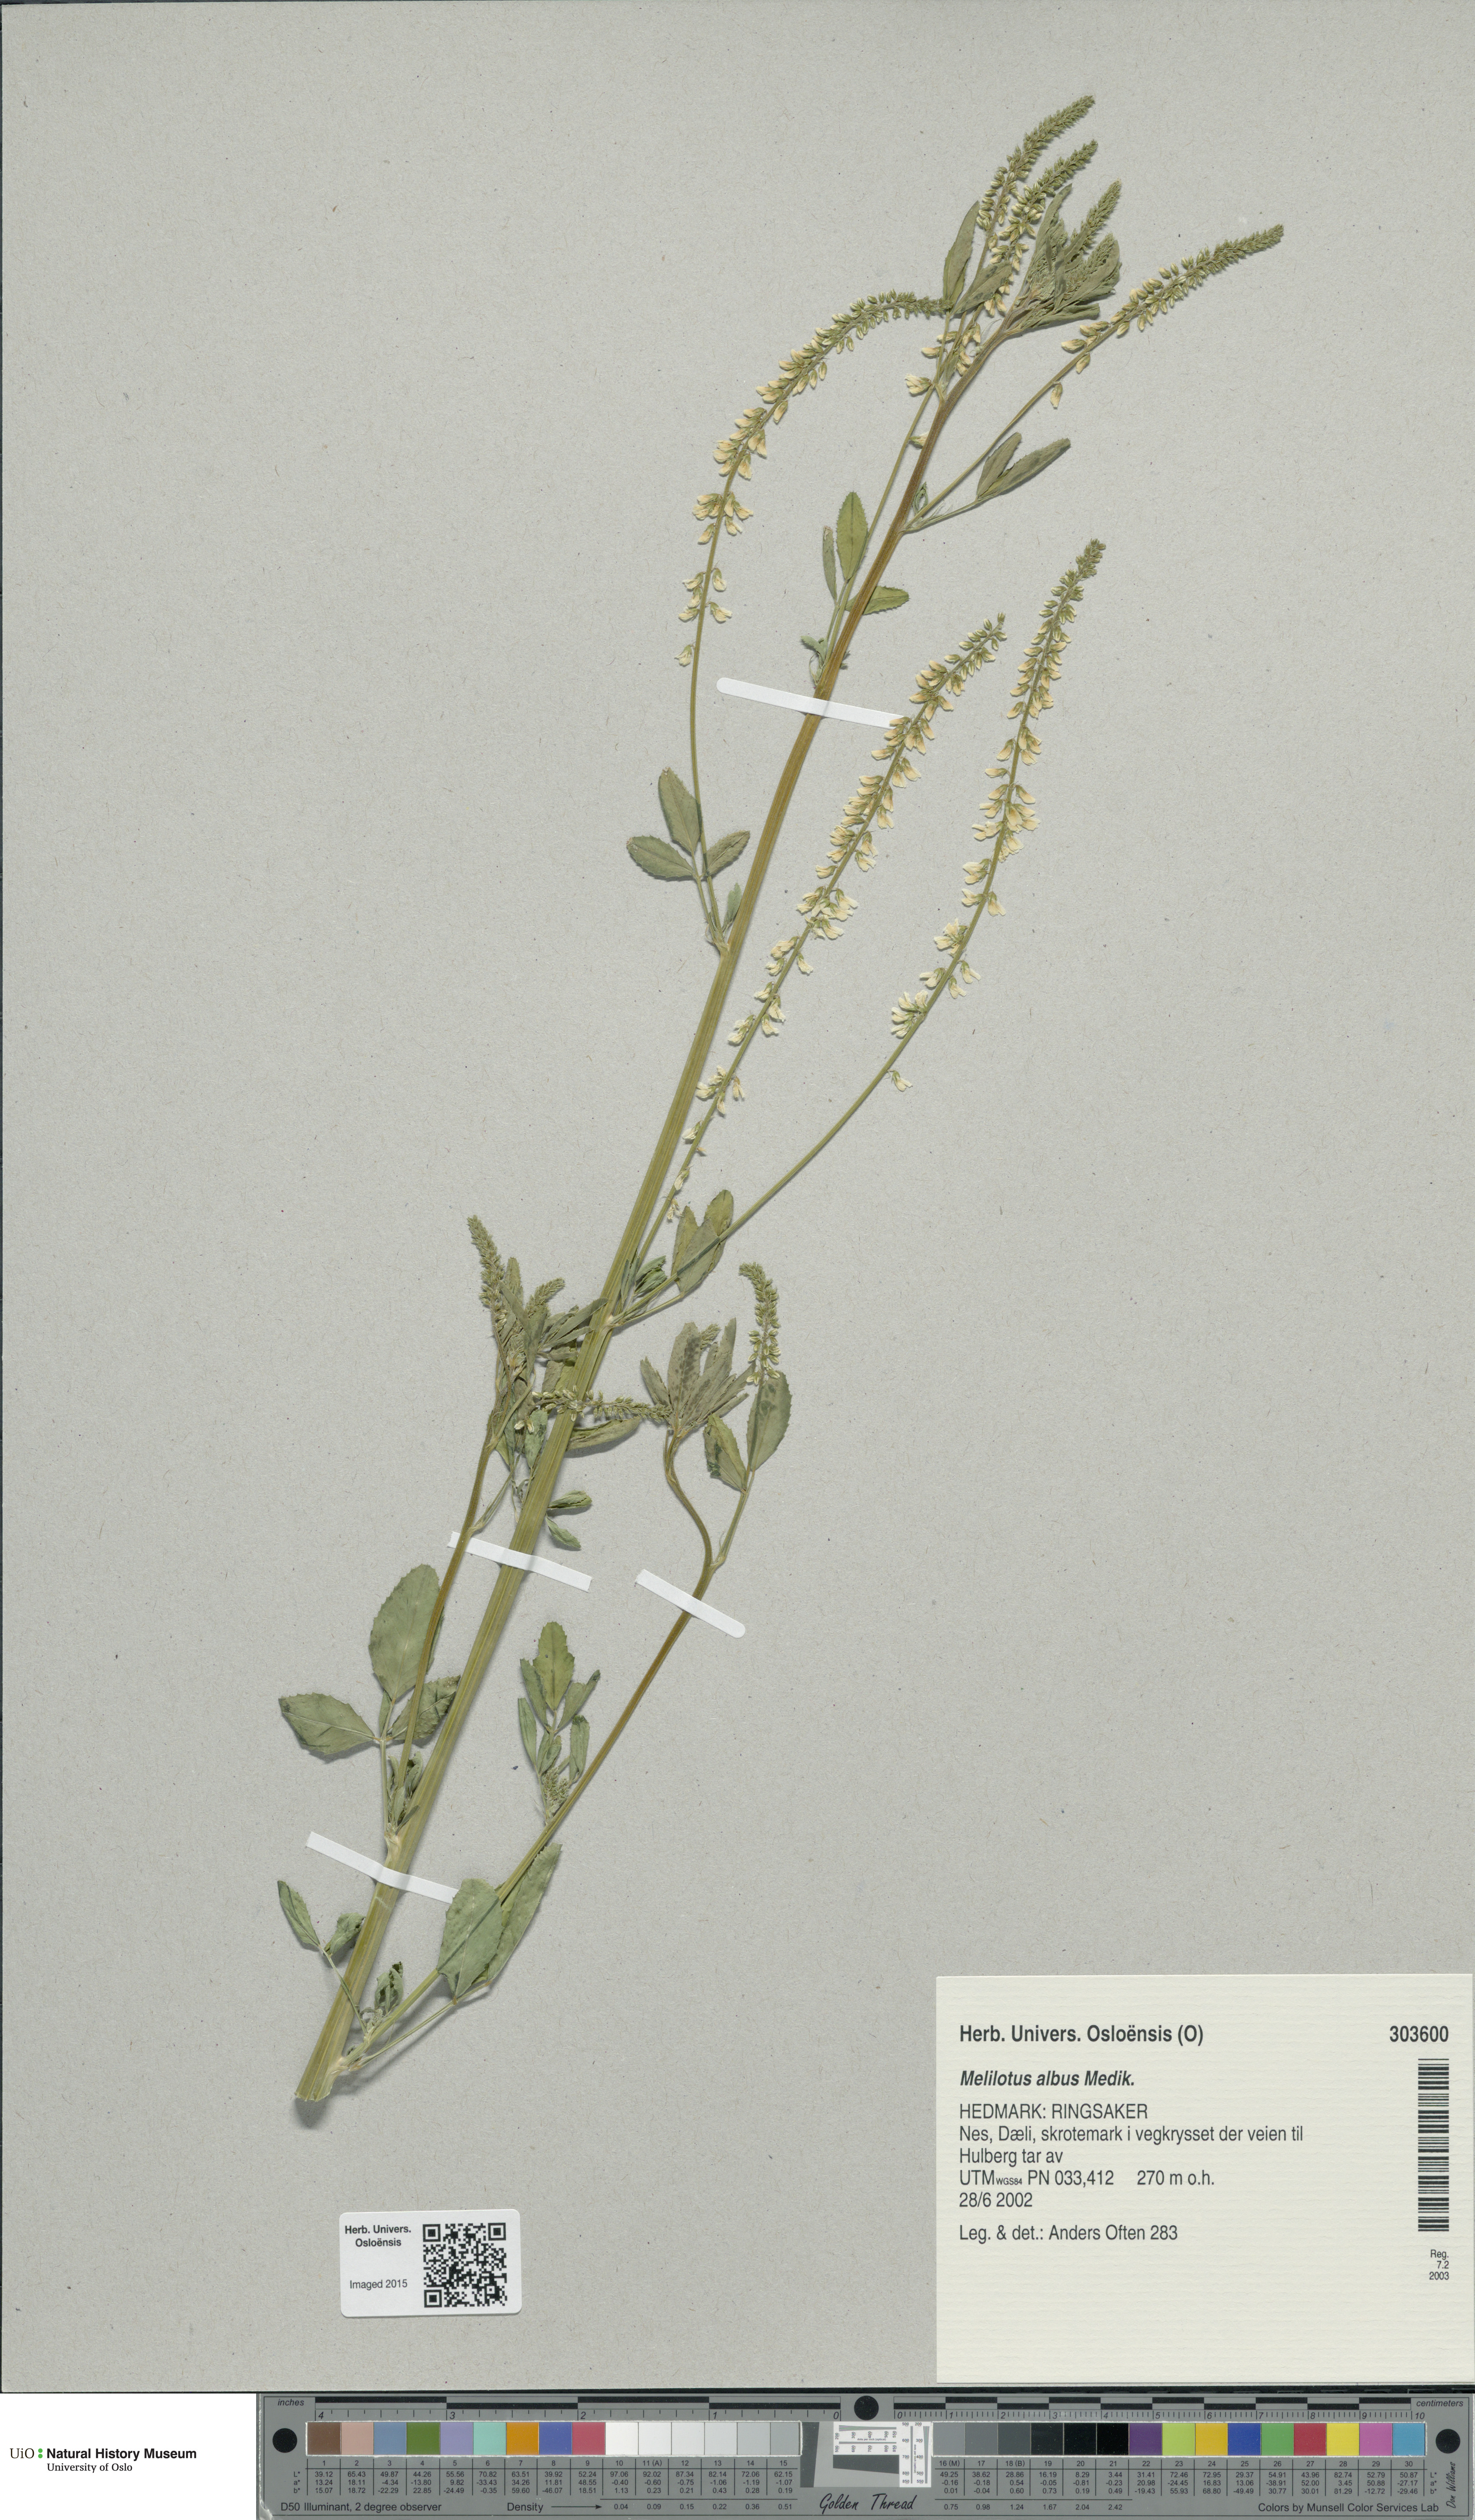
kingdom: Plantae
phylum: Tracheophyta
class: Magnoliopsida
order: Fabales
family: Fabaceae
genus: Melilotus
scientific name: Melilotus albus
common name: White melilot
